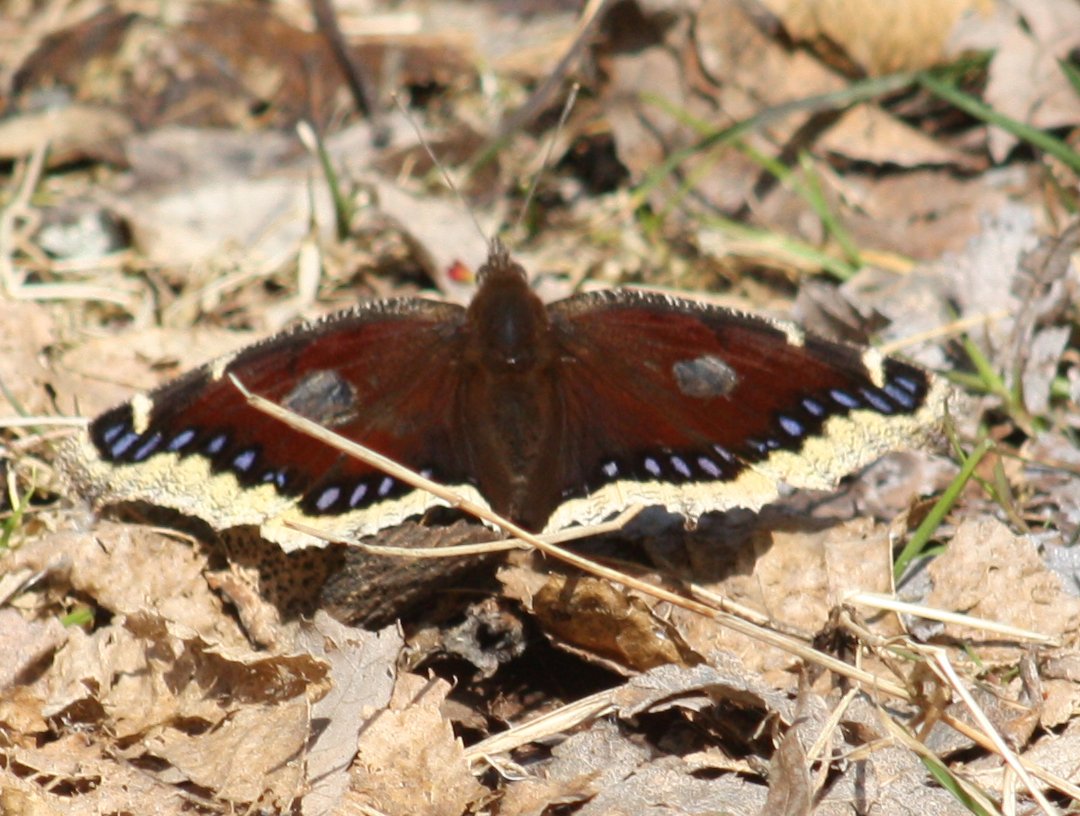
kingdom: Animalia
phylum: Arthropoda
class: Insecta
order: Lepidoptera
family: Nymphalidae
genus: Nymphalis
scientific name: Nymphalis antiopa
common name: Mourning Cloak
